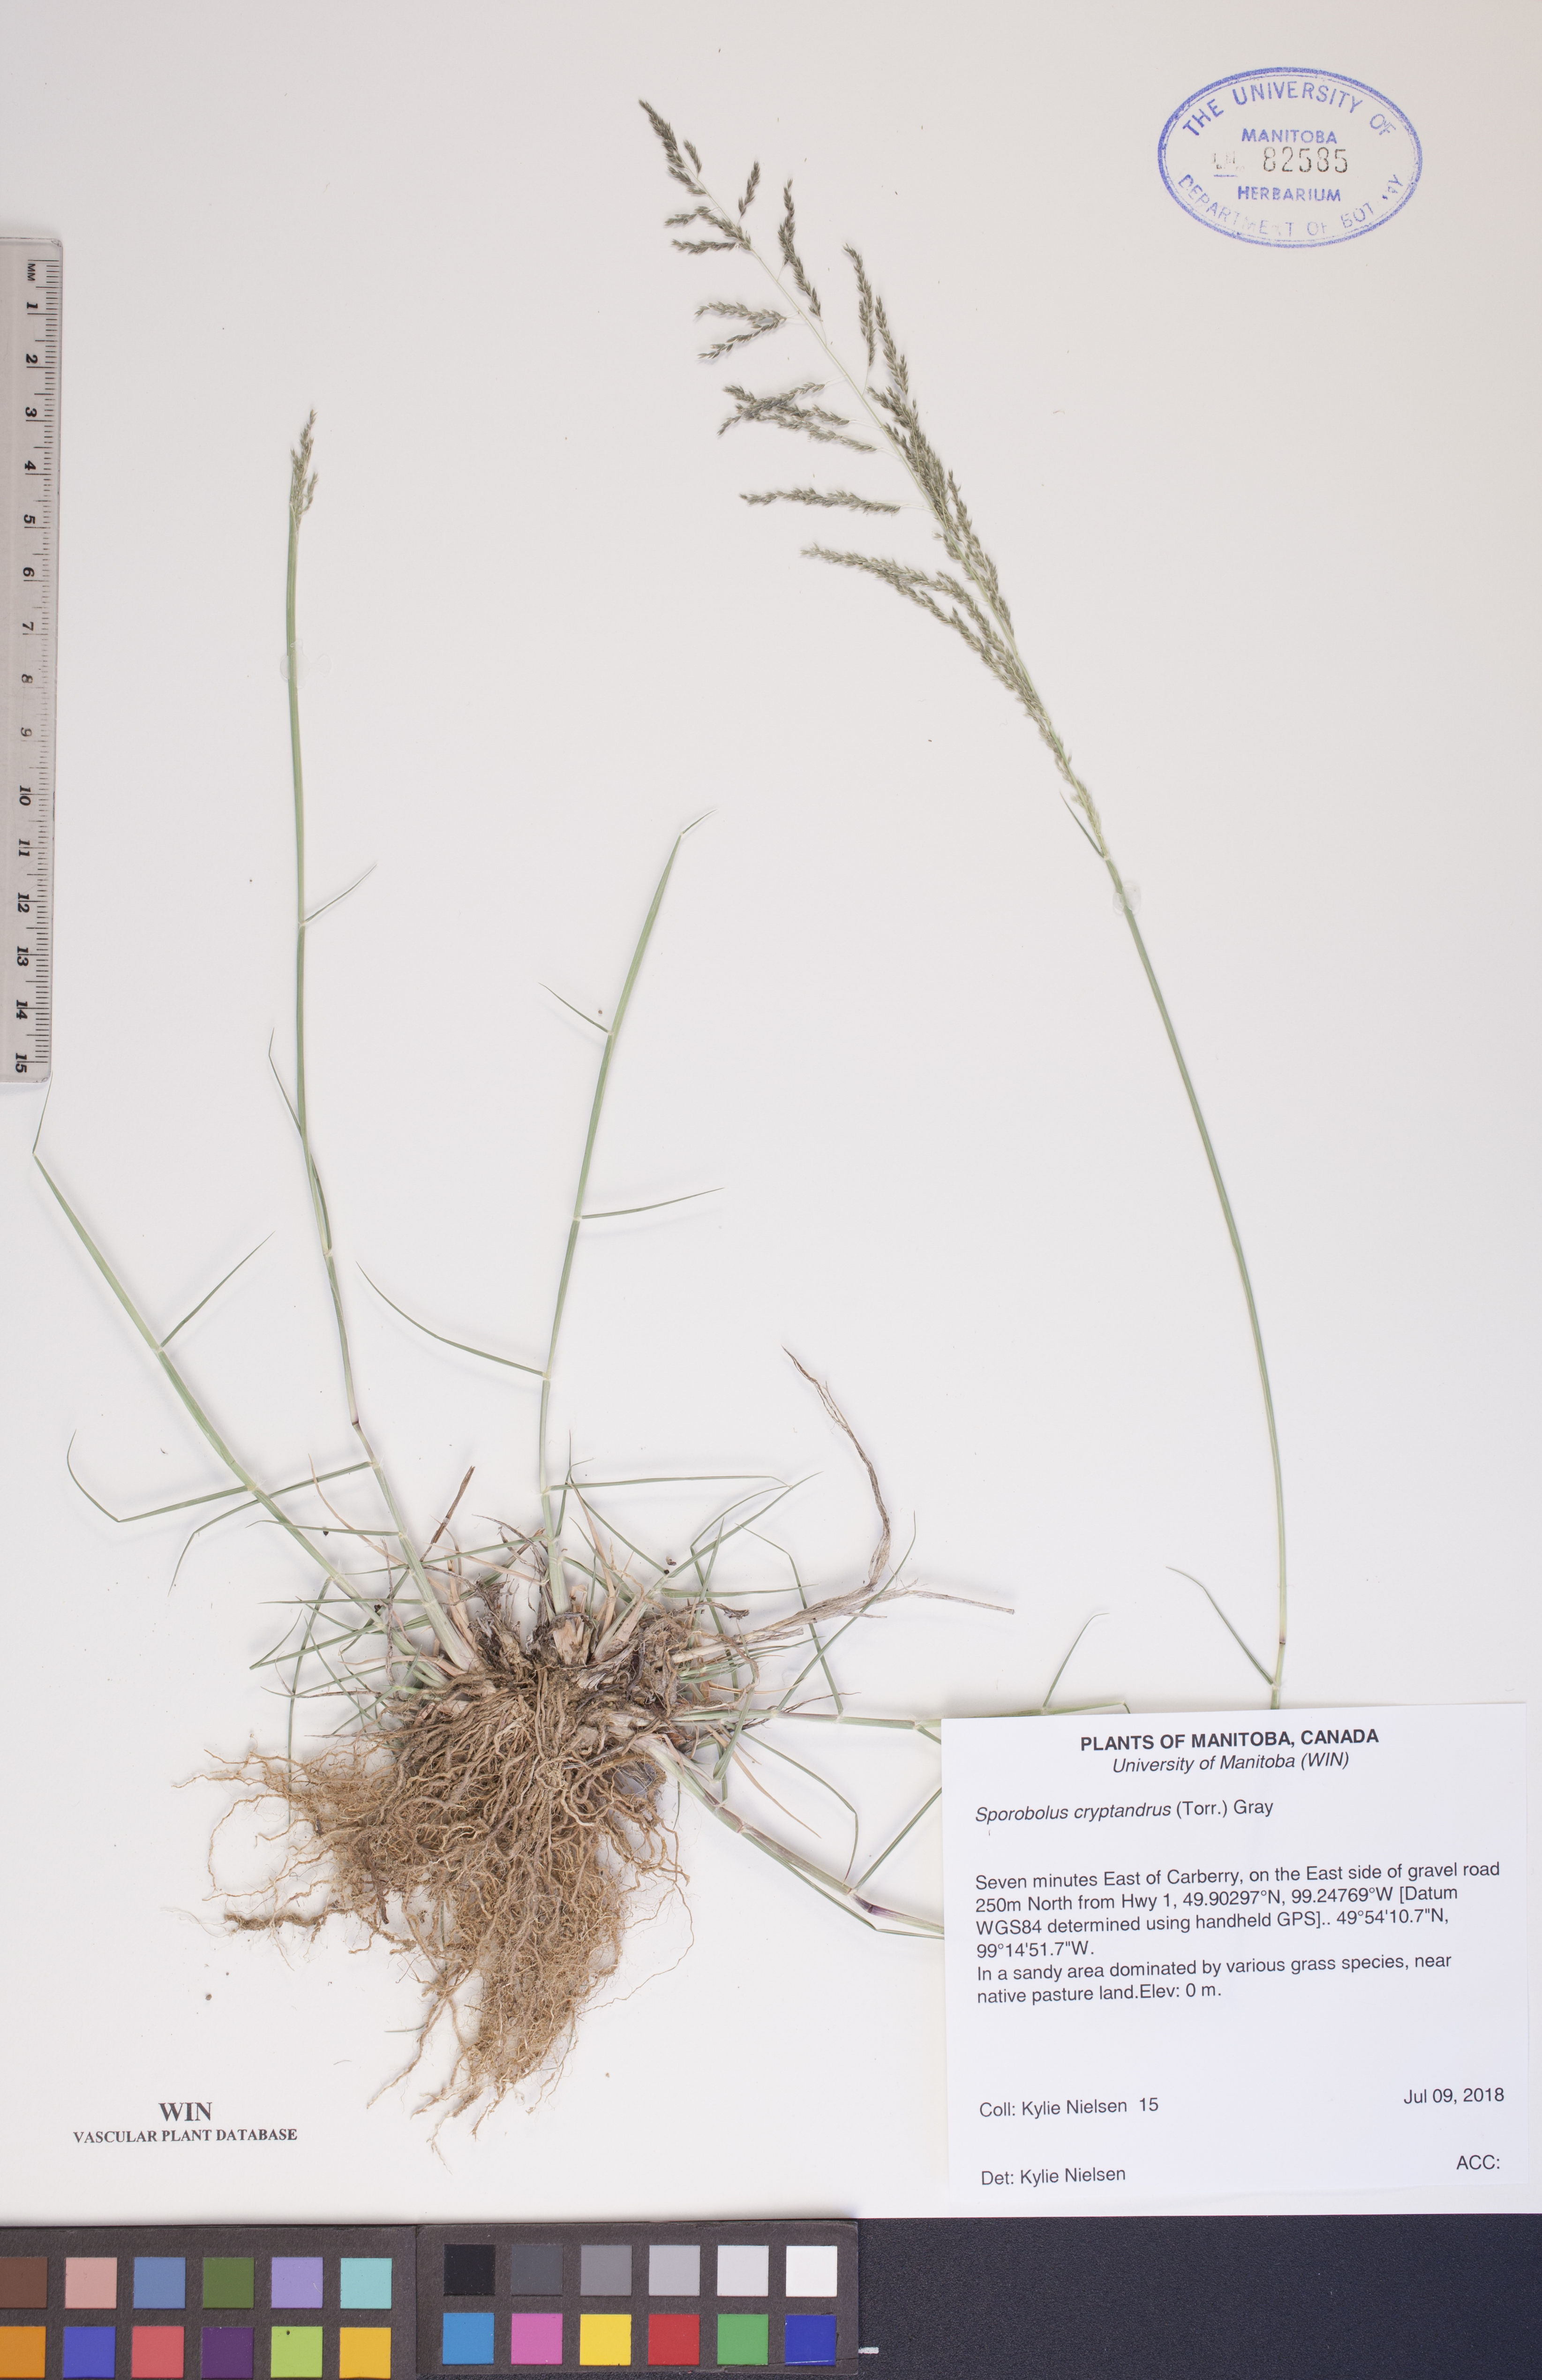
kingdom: Plantae
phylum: Tracheophyta
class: Liliopsida
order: Poales
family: Poaceae
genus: Sporobolus
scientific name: Sporobolus cryptandrus
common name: Sand dropseed
